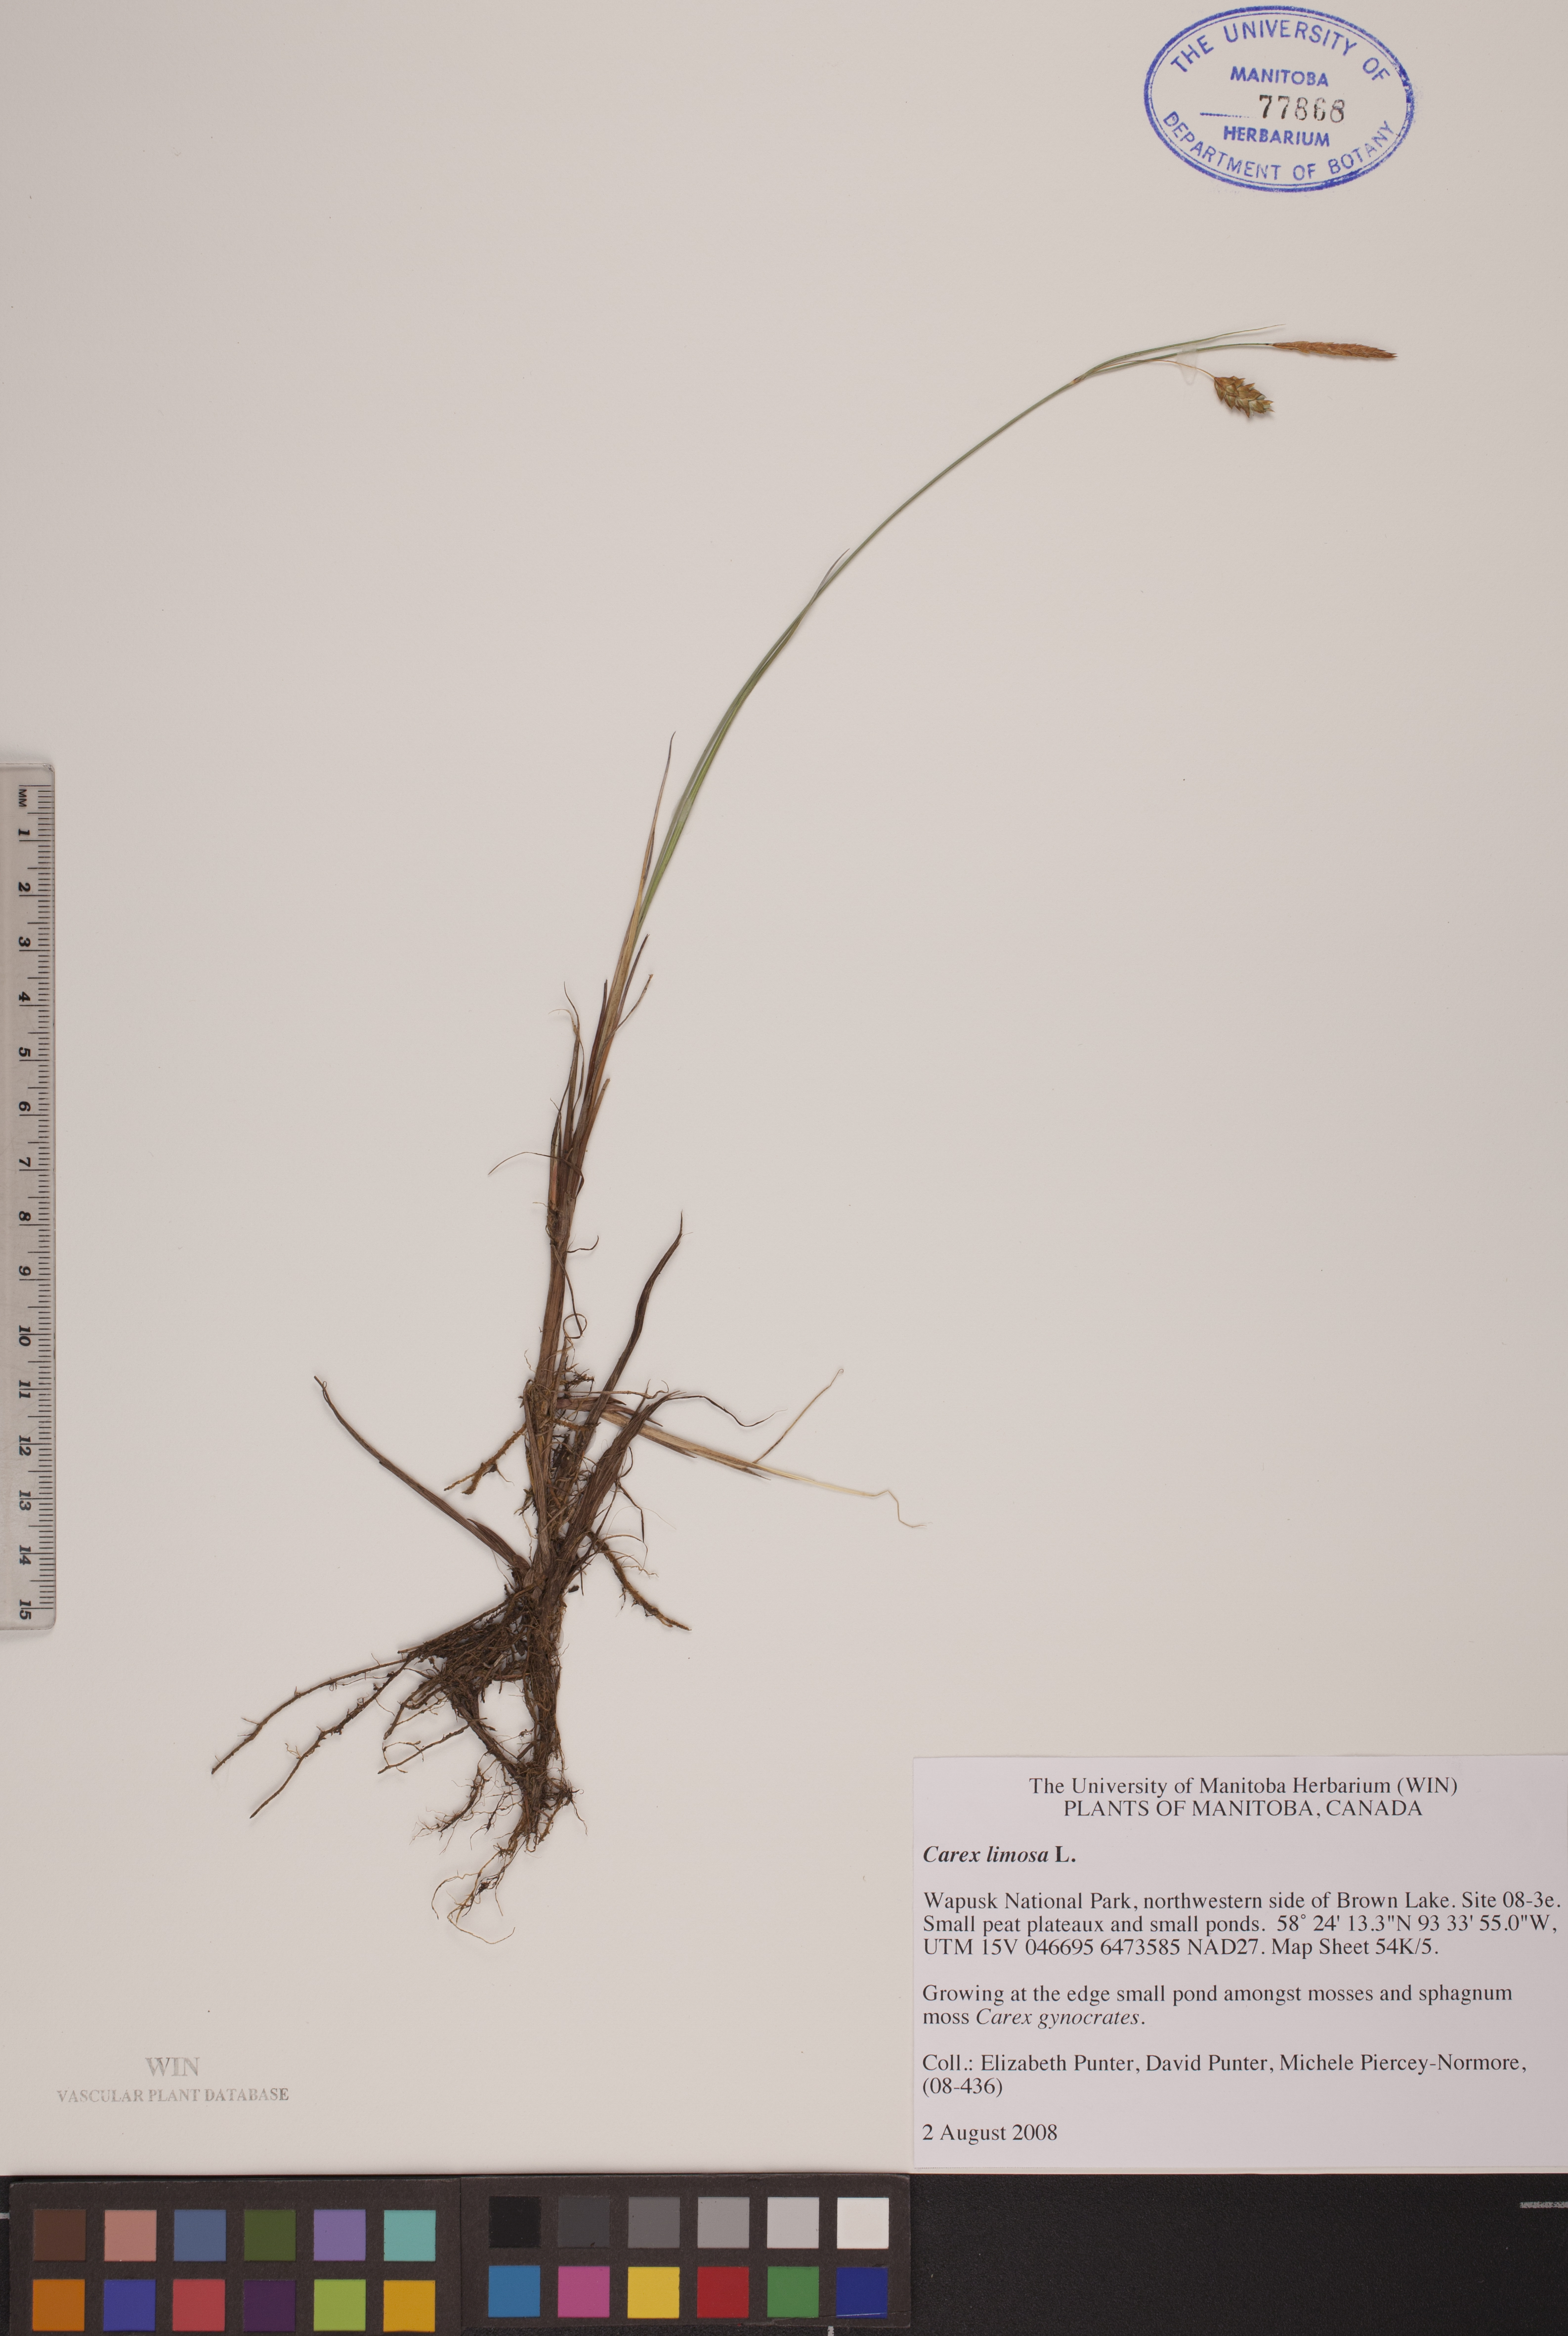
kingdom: Plantae
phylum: Tracheophyta
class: Liliopsida
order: Poales
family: Cyperaceae
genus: Carex
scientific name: Carex limosa
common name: Bog sedge
